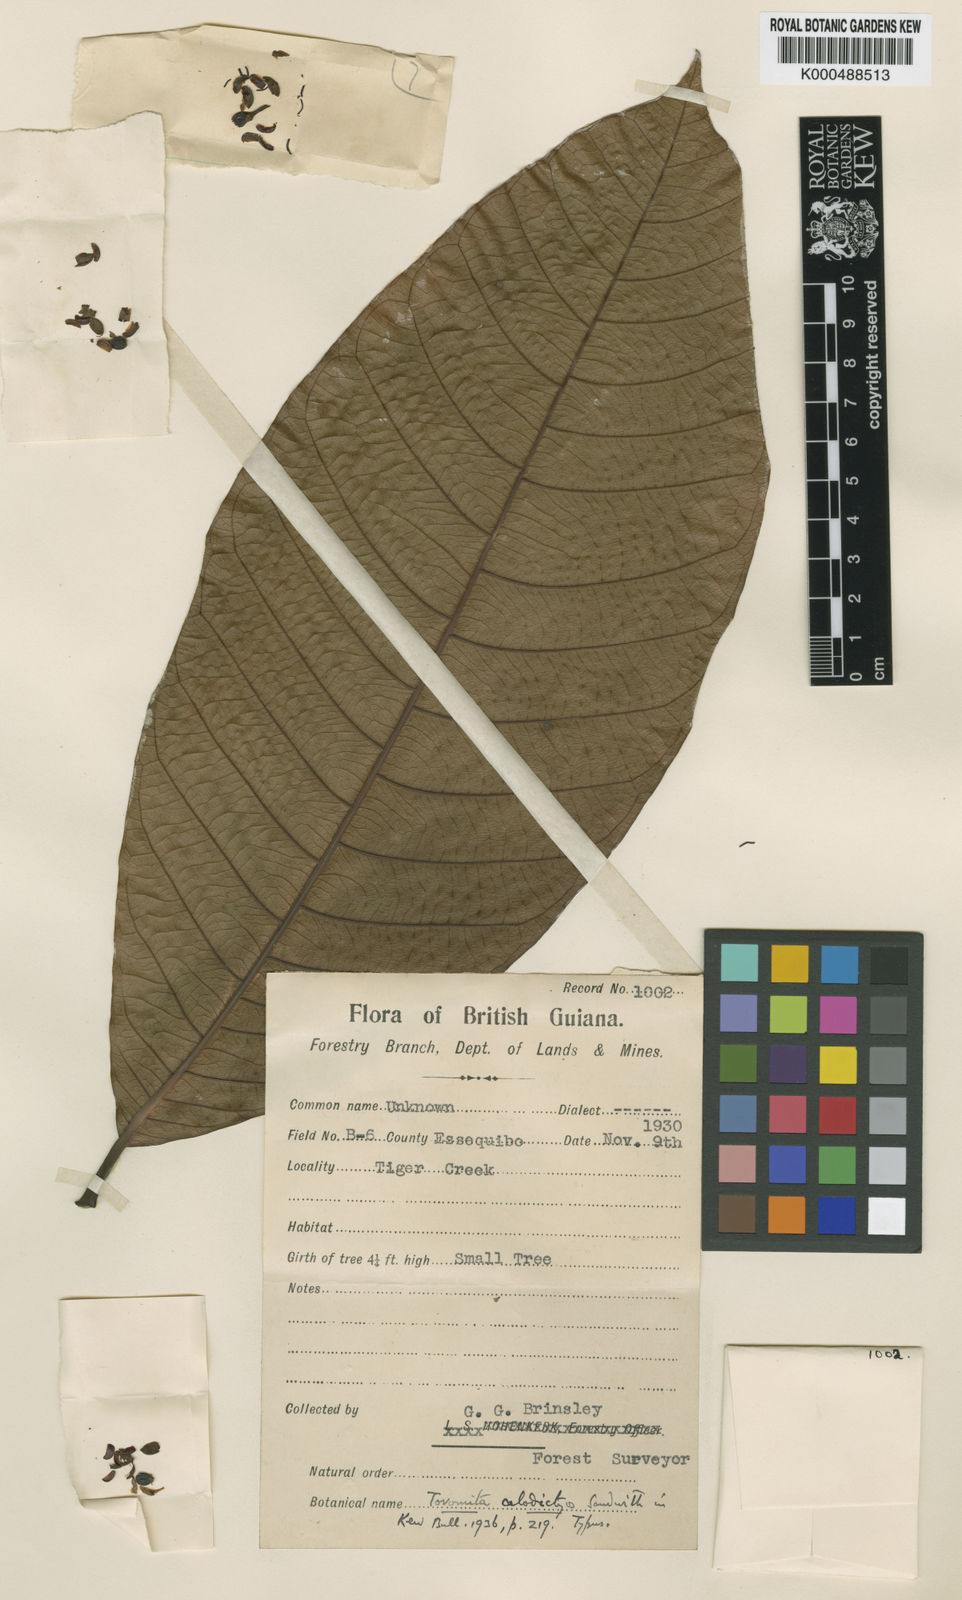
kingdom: Plantae
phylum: Tracheophyta
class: Magnoliopsida
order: Malpighiales
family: Clusiaceae
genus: Tovomita
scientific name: Tovomita calodictyos
